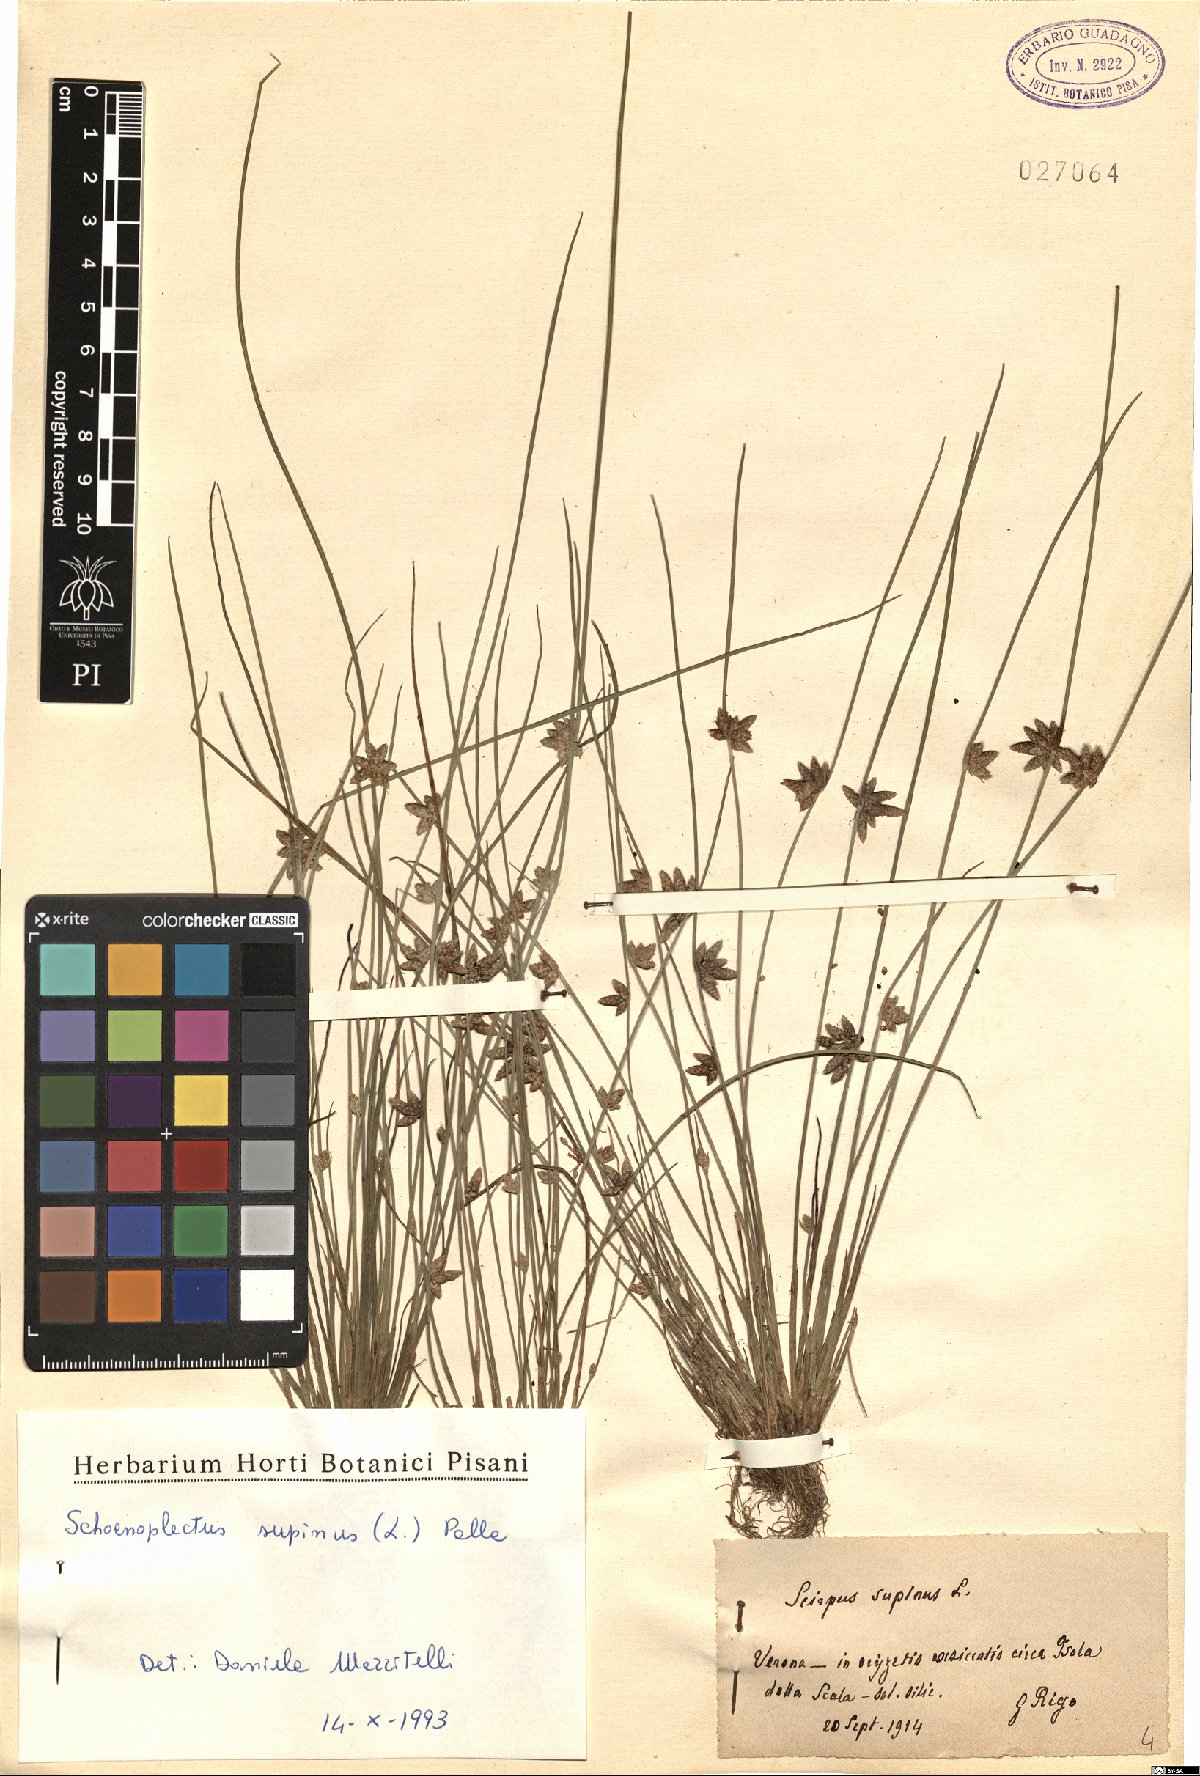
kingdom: Plantae
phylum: Tracheophyta
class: Liliopsida
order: Poales
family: Cyperaceae
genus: Schoenoplectiella
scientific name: Schoenoplectiella supina
